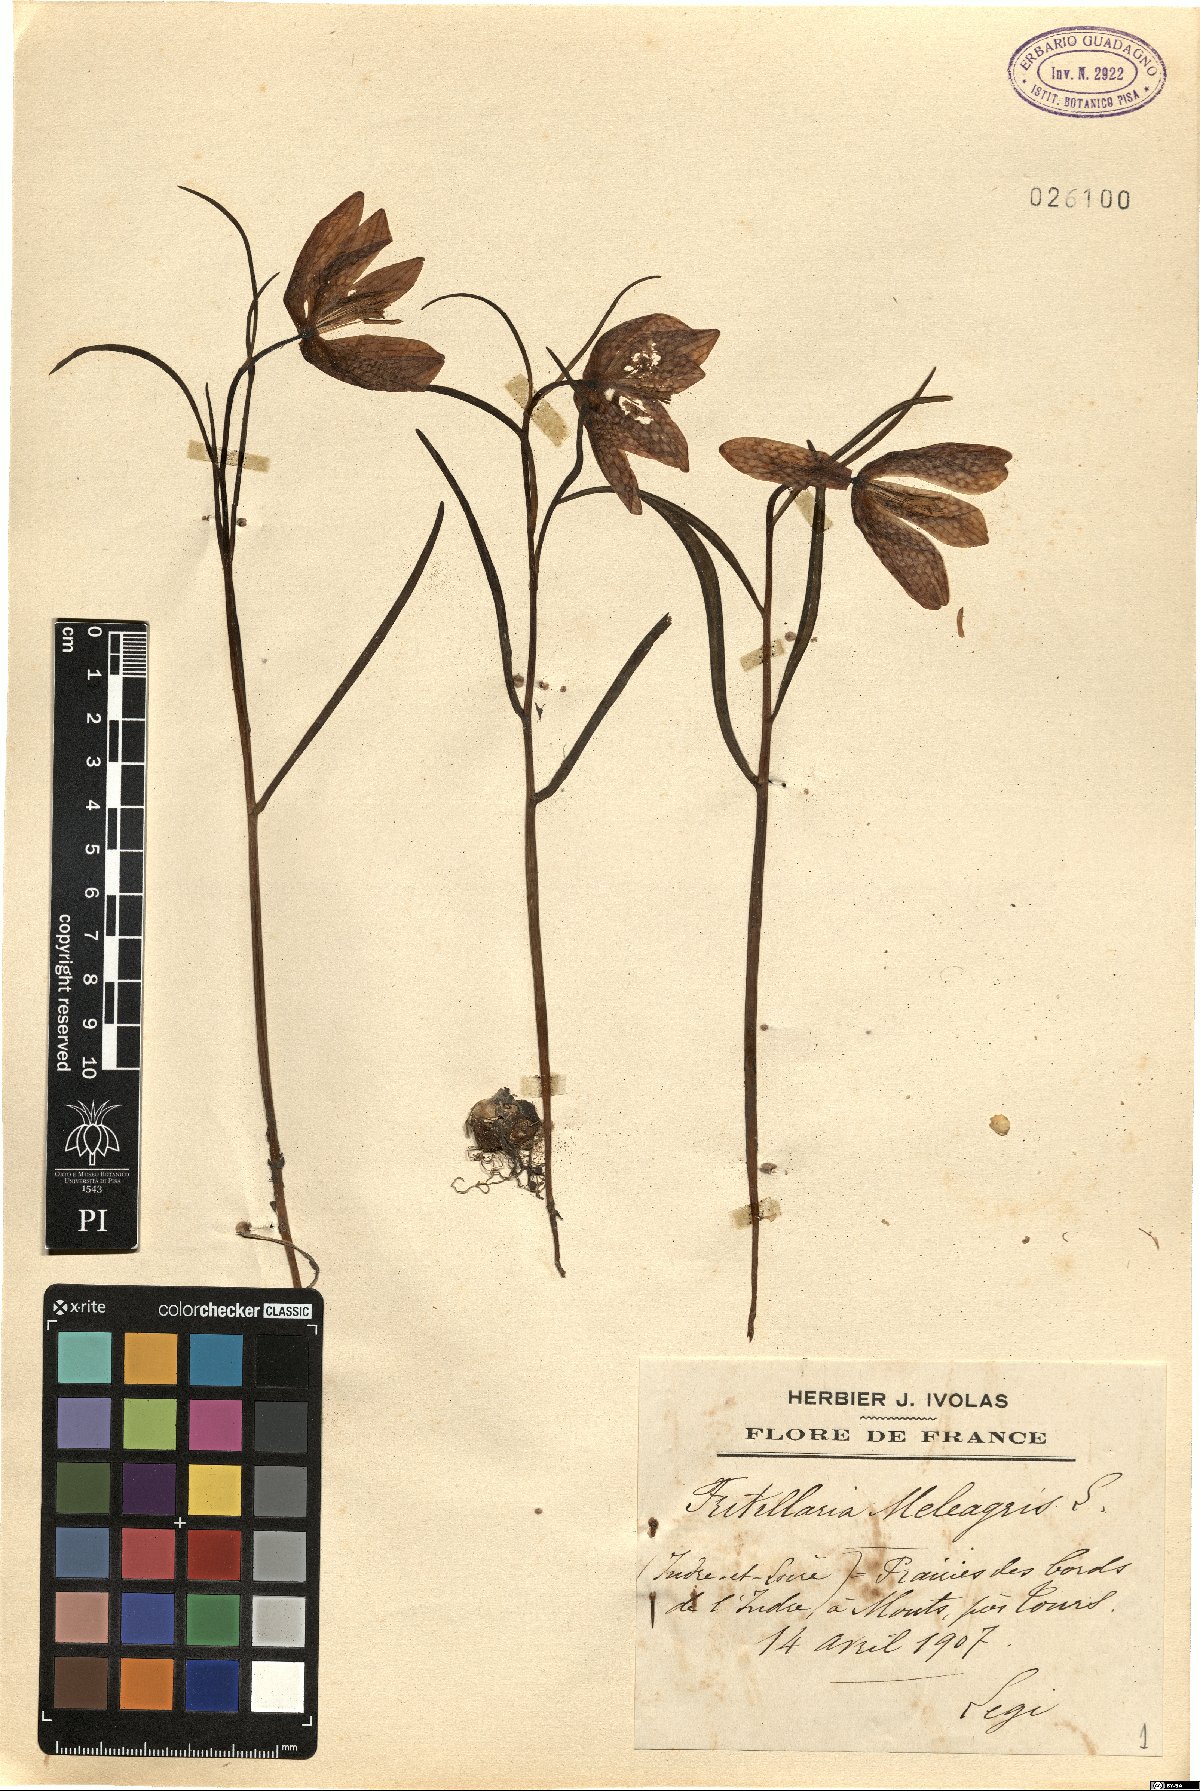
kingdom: Plantae
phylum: Tracheophyta
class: Liliopsida
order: Liliales
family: Liliaceae
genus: Fritillaria
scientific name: Fritillaria meleagris
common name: Fritillary
